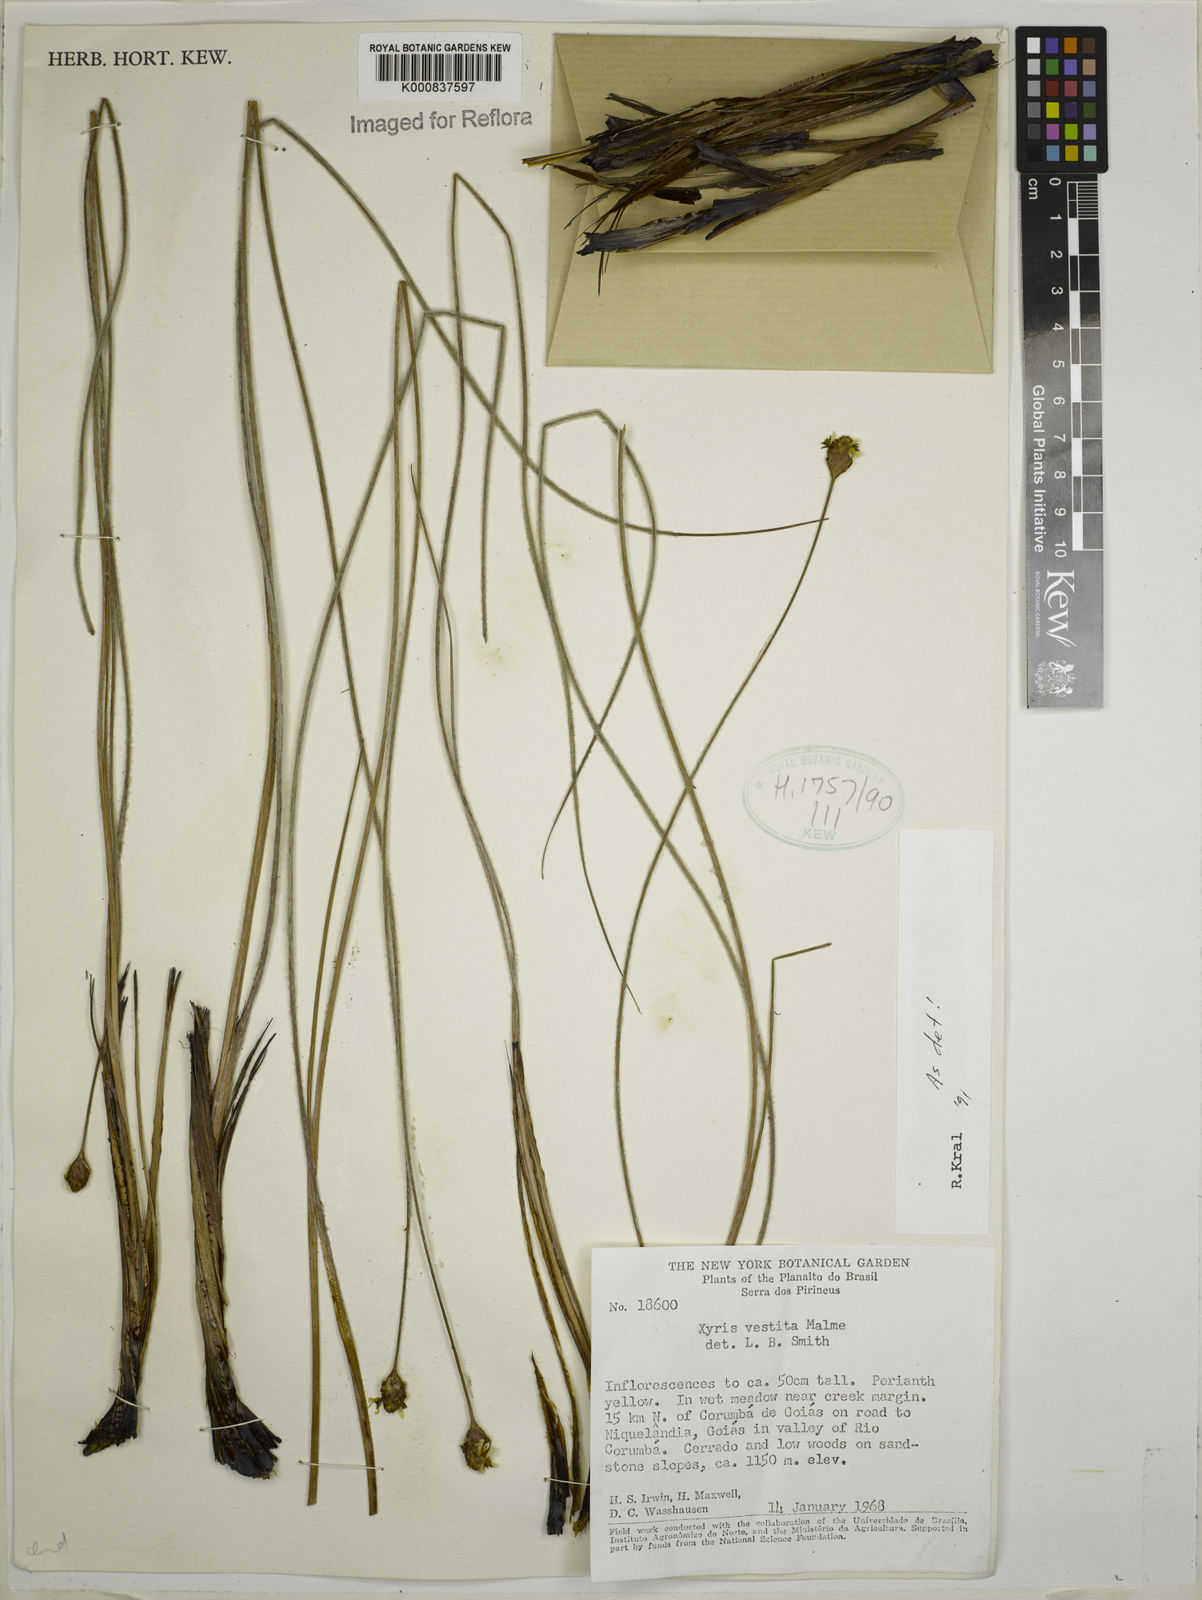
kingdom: Plantae
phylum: Tracheophyta
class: Liliopsida
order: Poales
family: Xyridaceae
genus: Xyris
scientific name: Xyris vestita
